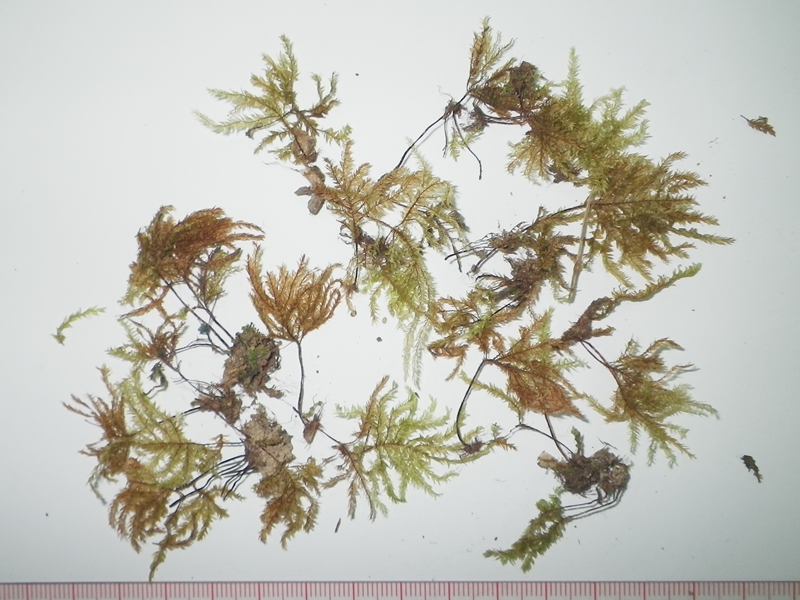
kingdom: Plantae
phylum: Bryophyta
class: Bryopsida
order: Hypnodendrales
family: Spiridentaceae
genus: Hypnodendron
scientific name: Hypnodendron vitiense
